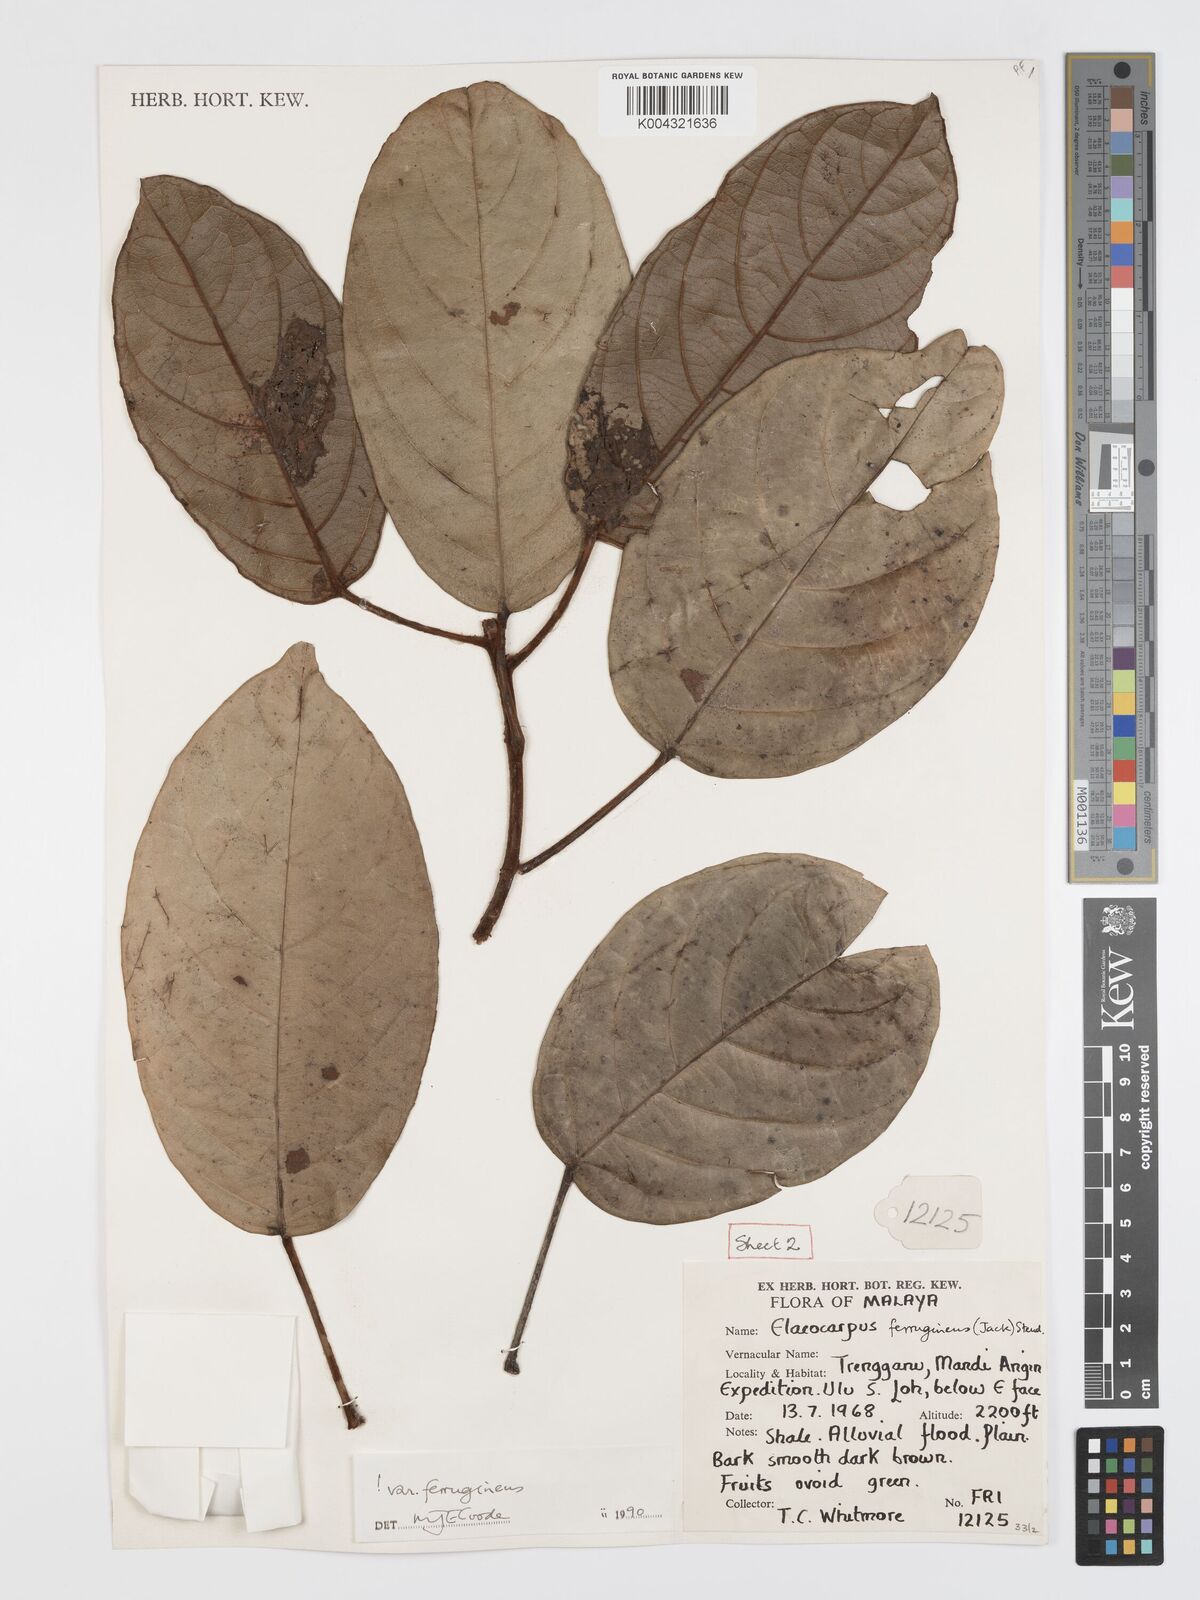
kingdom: Plantae
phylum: Tracheophyta
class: Magnoliopsida
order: Oxalidales
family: Elaeocarpaceae
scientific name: Elaeocarpaceae
